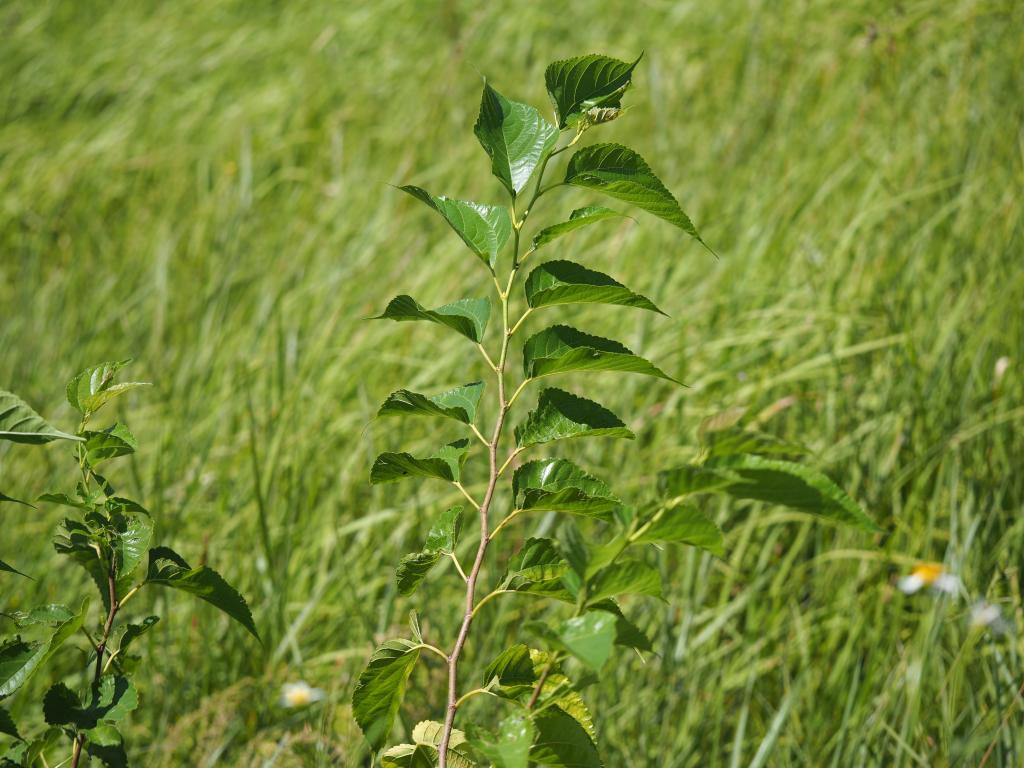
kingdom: Plantae
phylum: Tracheophyta
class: Magnoliopsida
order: Rosales
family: Moraceae
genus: Broussonetia
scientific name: Broussonetia papyrifera
